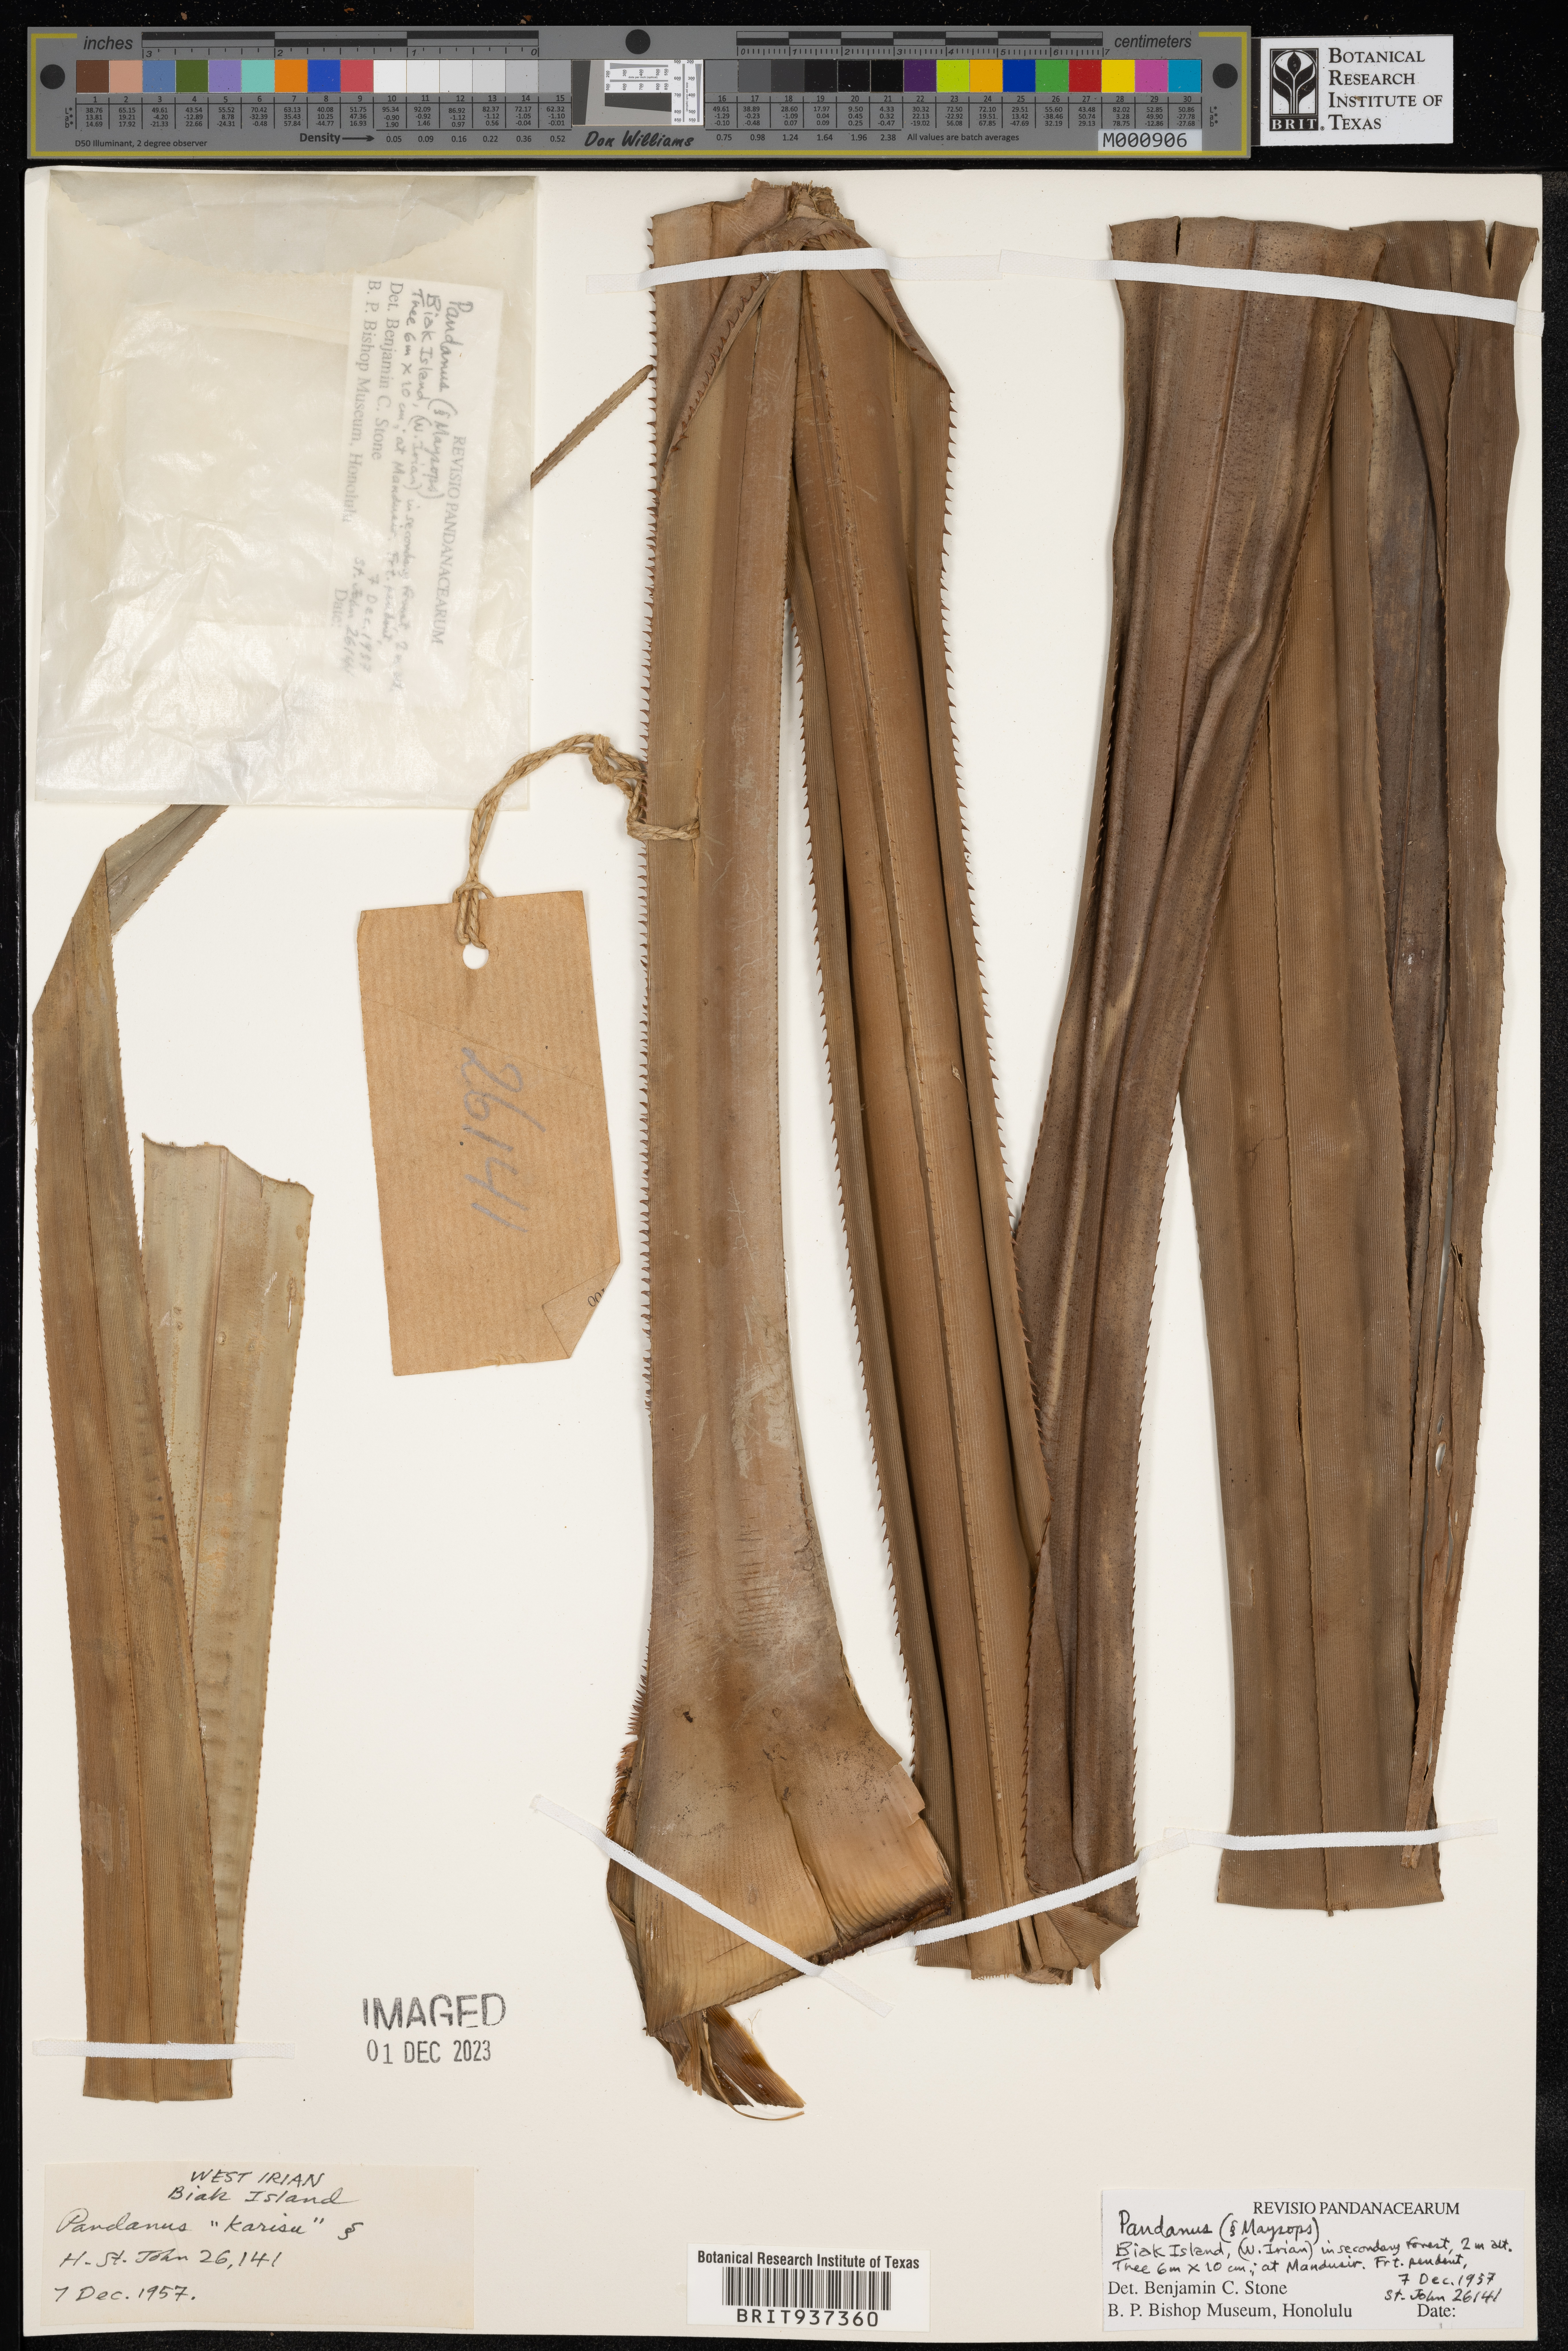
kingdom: Plantae
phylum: Tracheophyta
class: Liliopsida
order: Pandanales
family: Pandanaceae
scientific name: Pandanaceae
